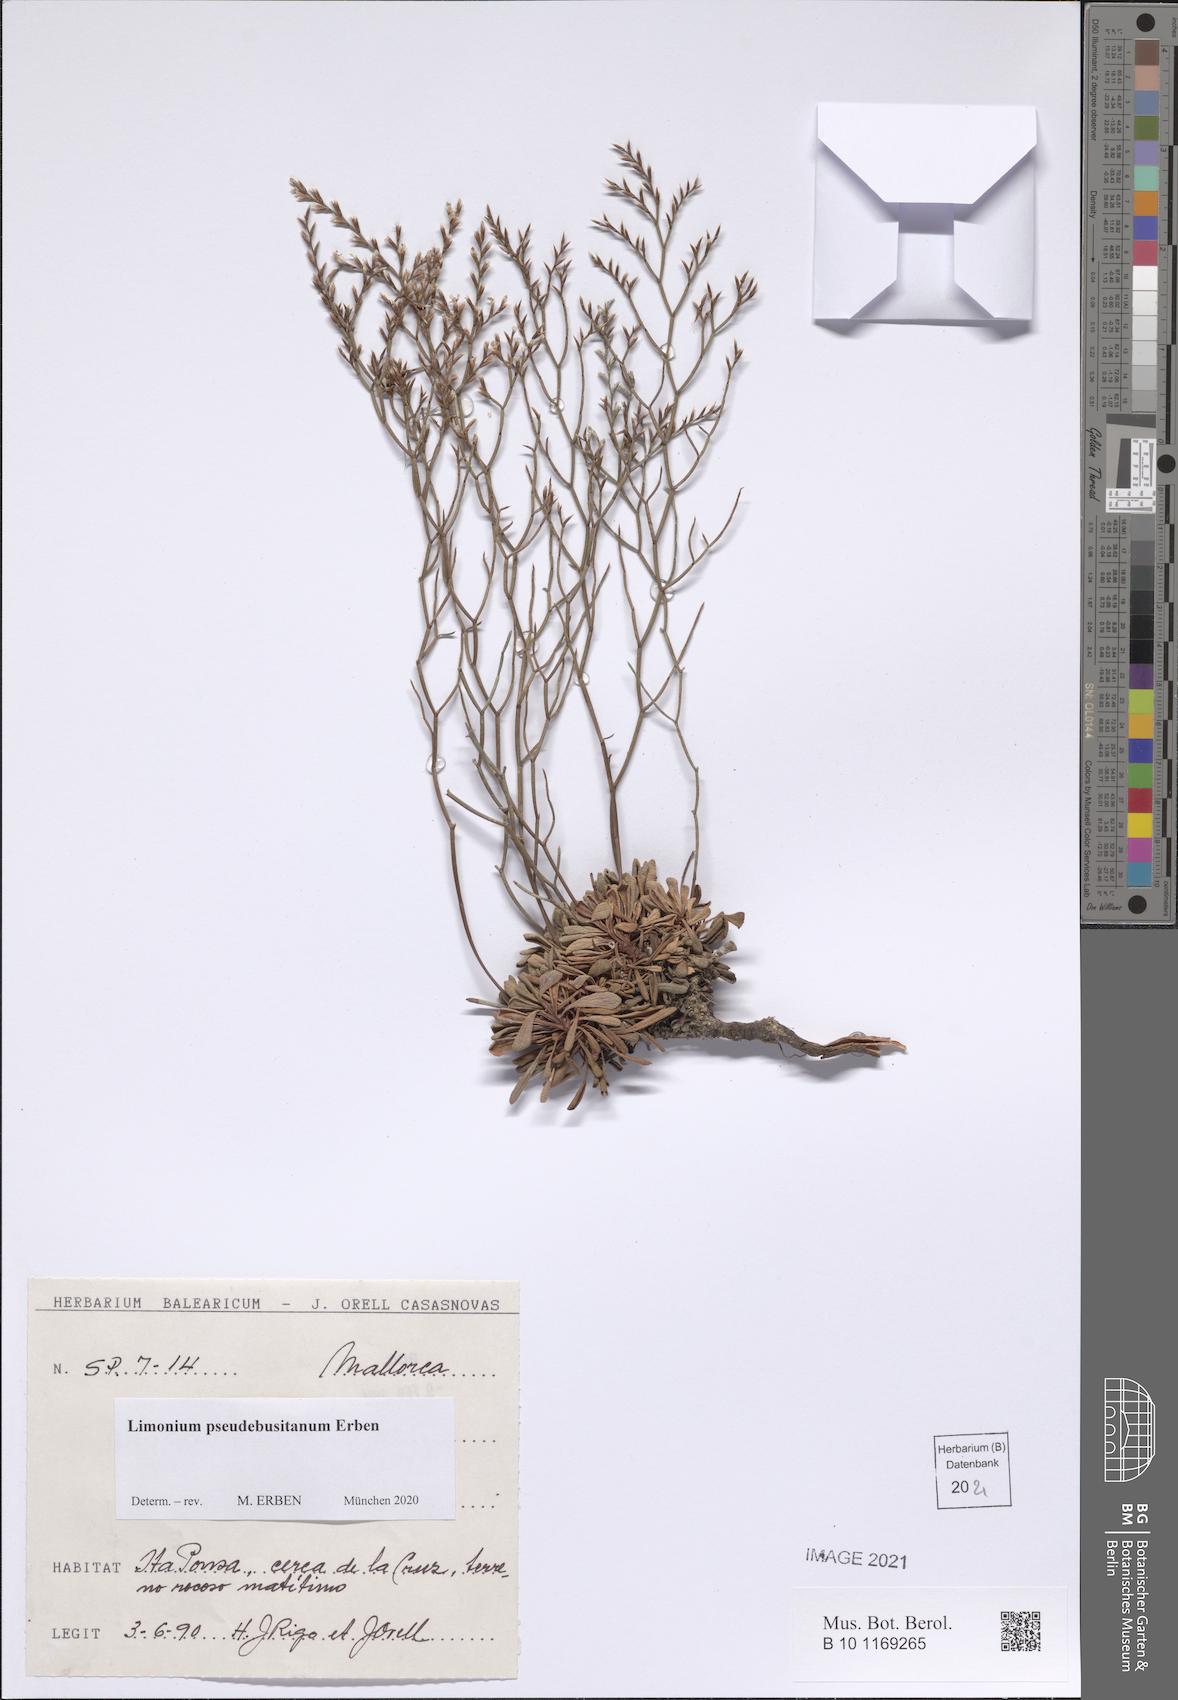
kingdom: Plantae
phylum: Tracheophyta
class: Magnoliopsida
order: Caryophyllales
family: Plumbaginaceae
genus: Limonium
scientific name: Limonium pseudebusitanum
